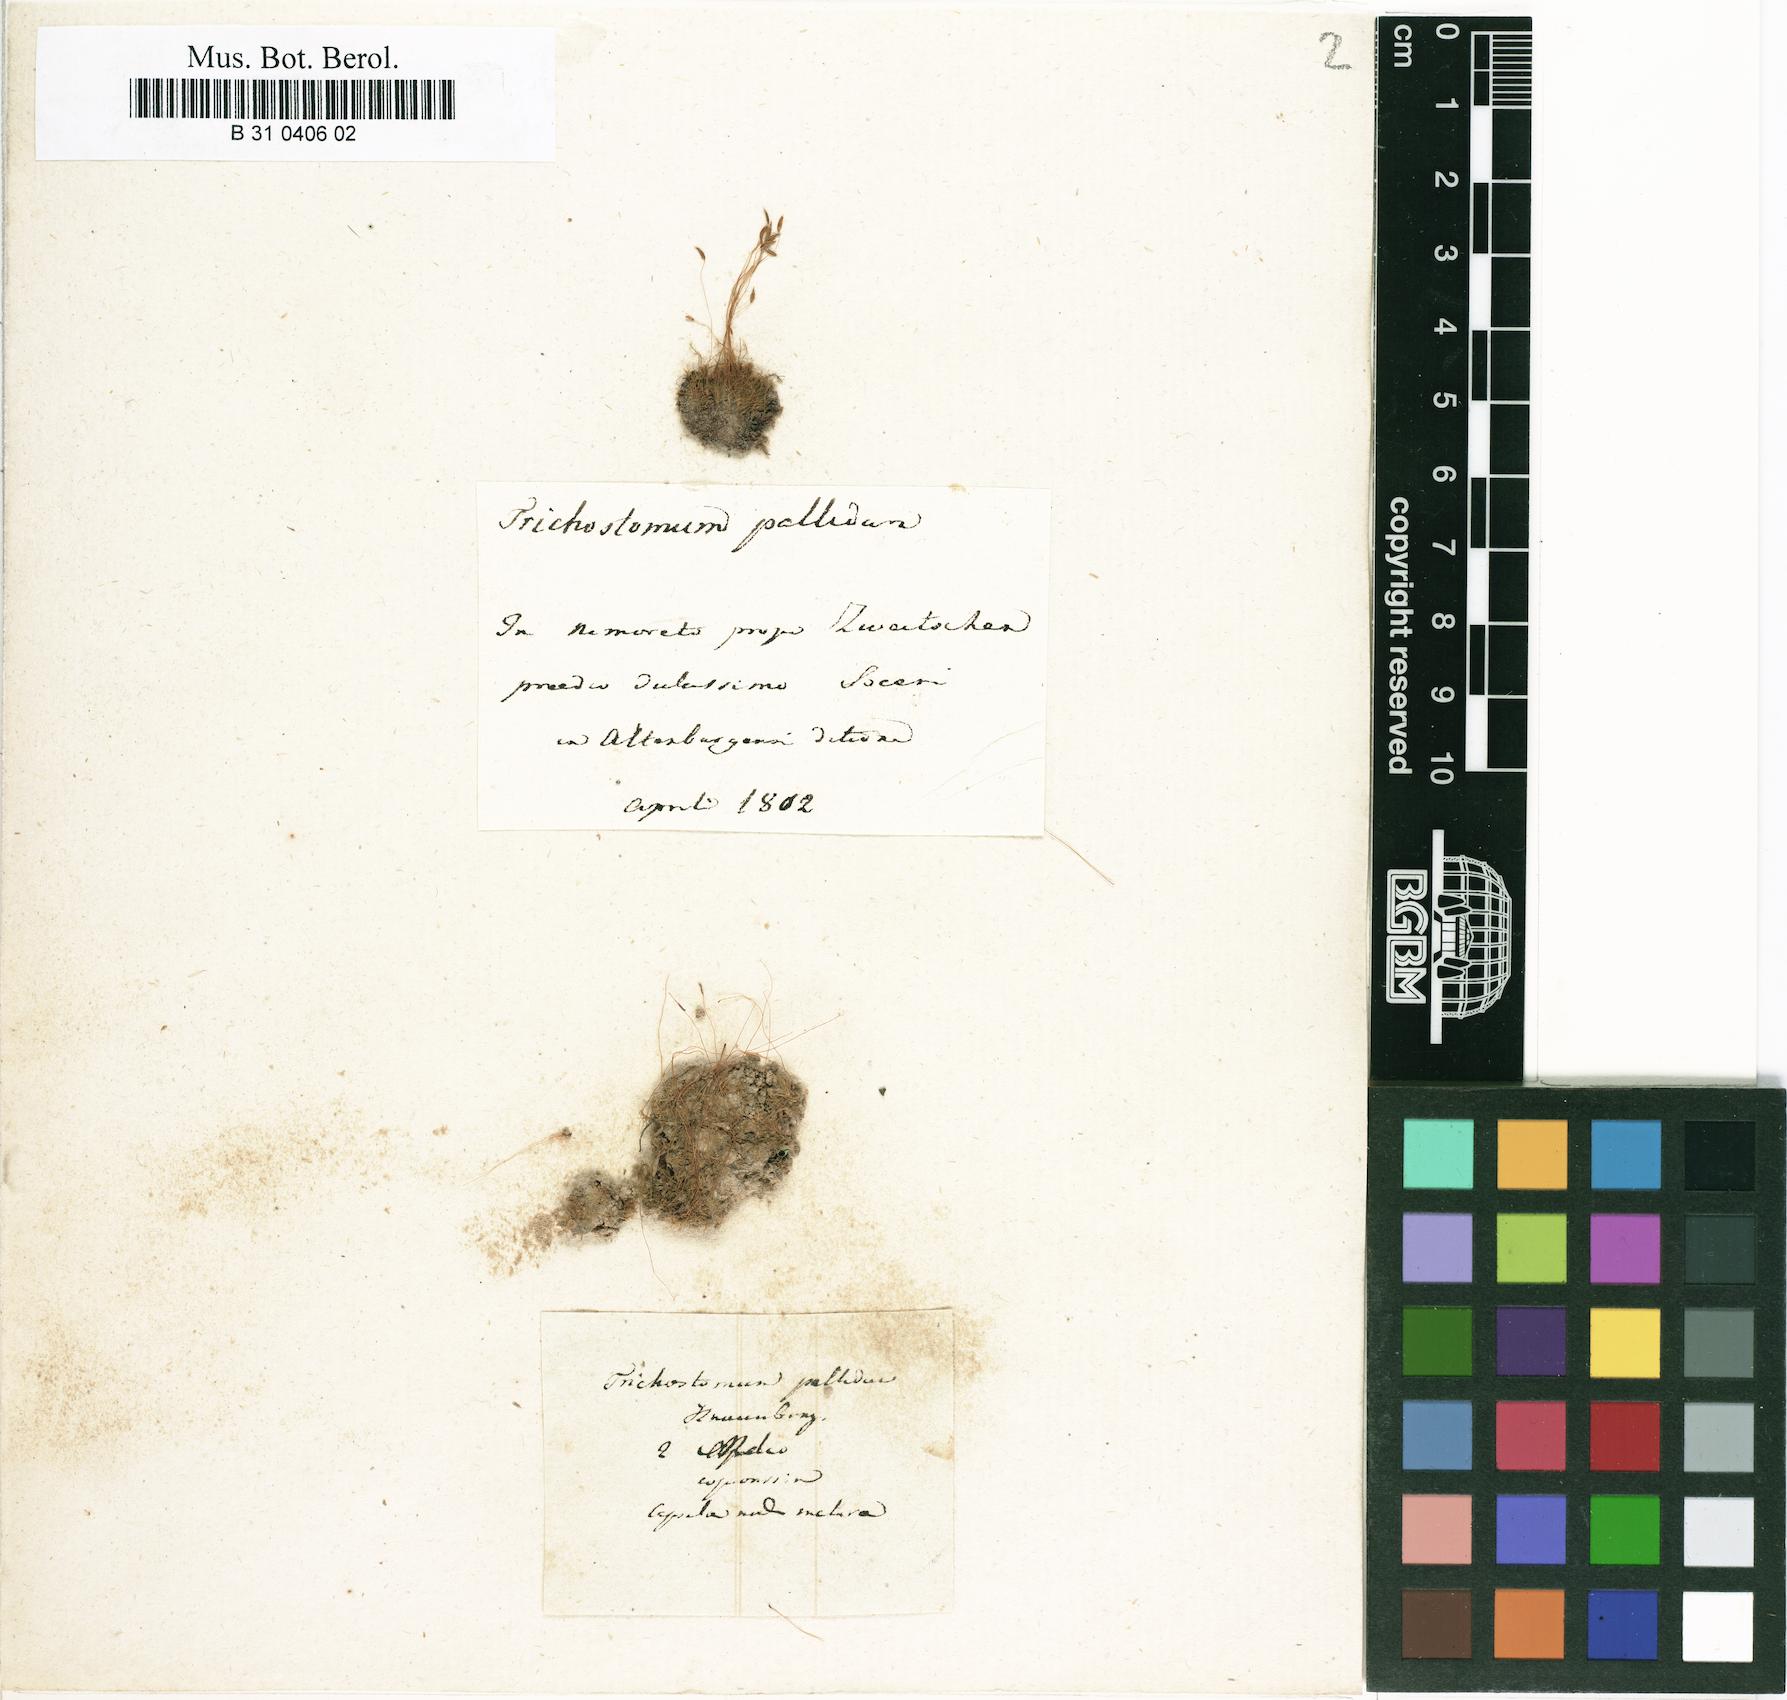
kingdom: Plantae
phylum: Bryophyta
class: Bryopsida
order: Dicranales
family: Ditrichaceae
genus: Ditrichum
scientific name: Ditrichum pallidum
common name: Pale cow-hair moss
